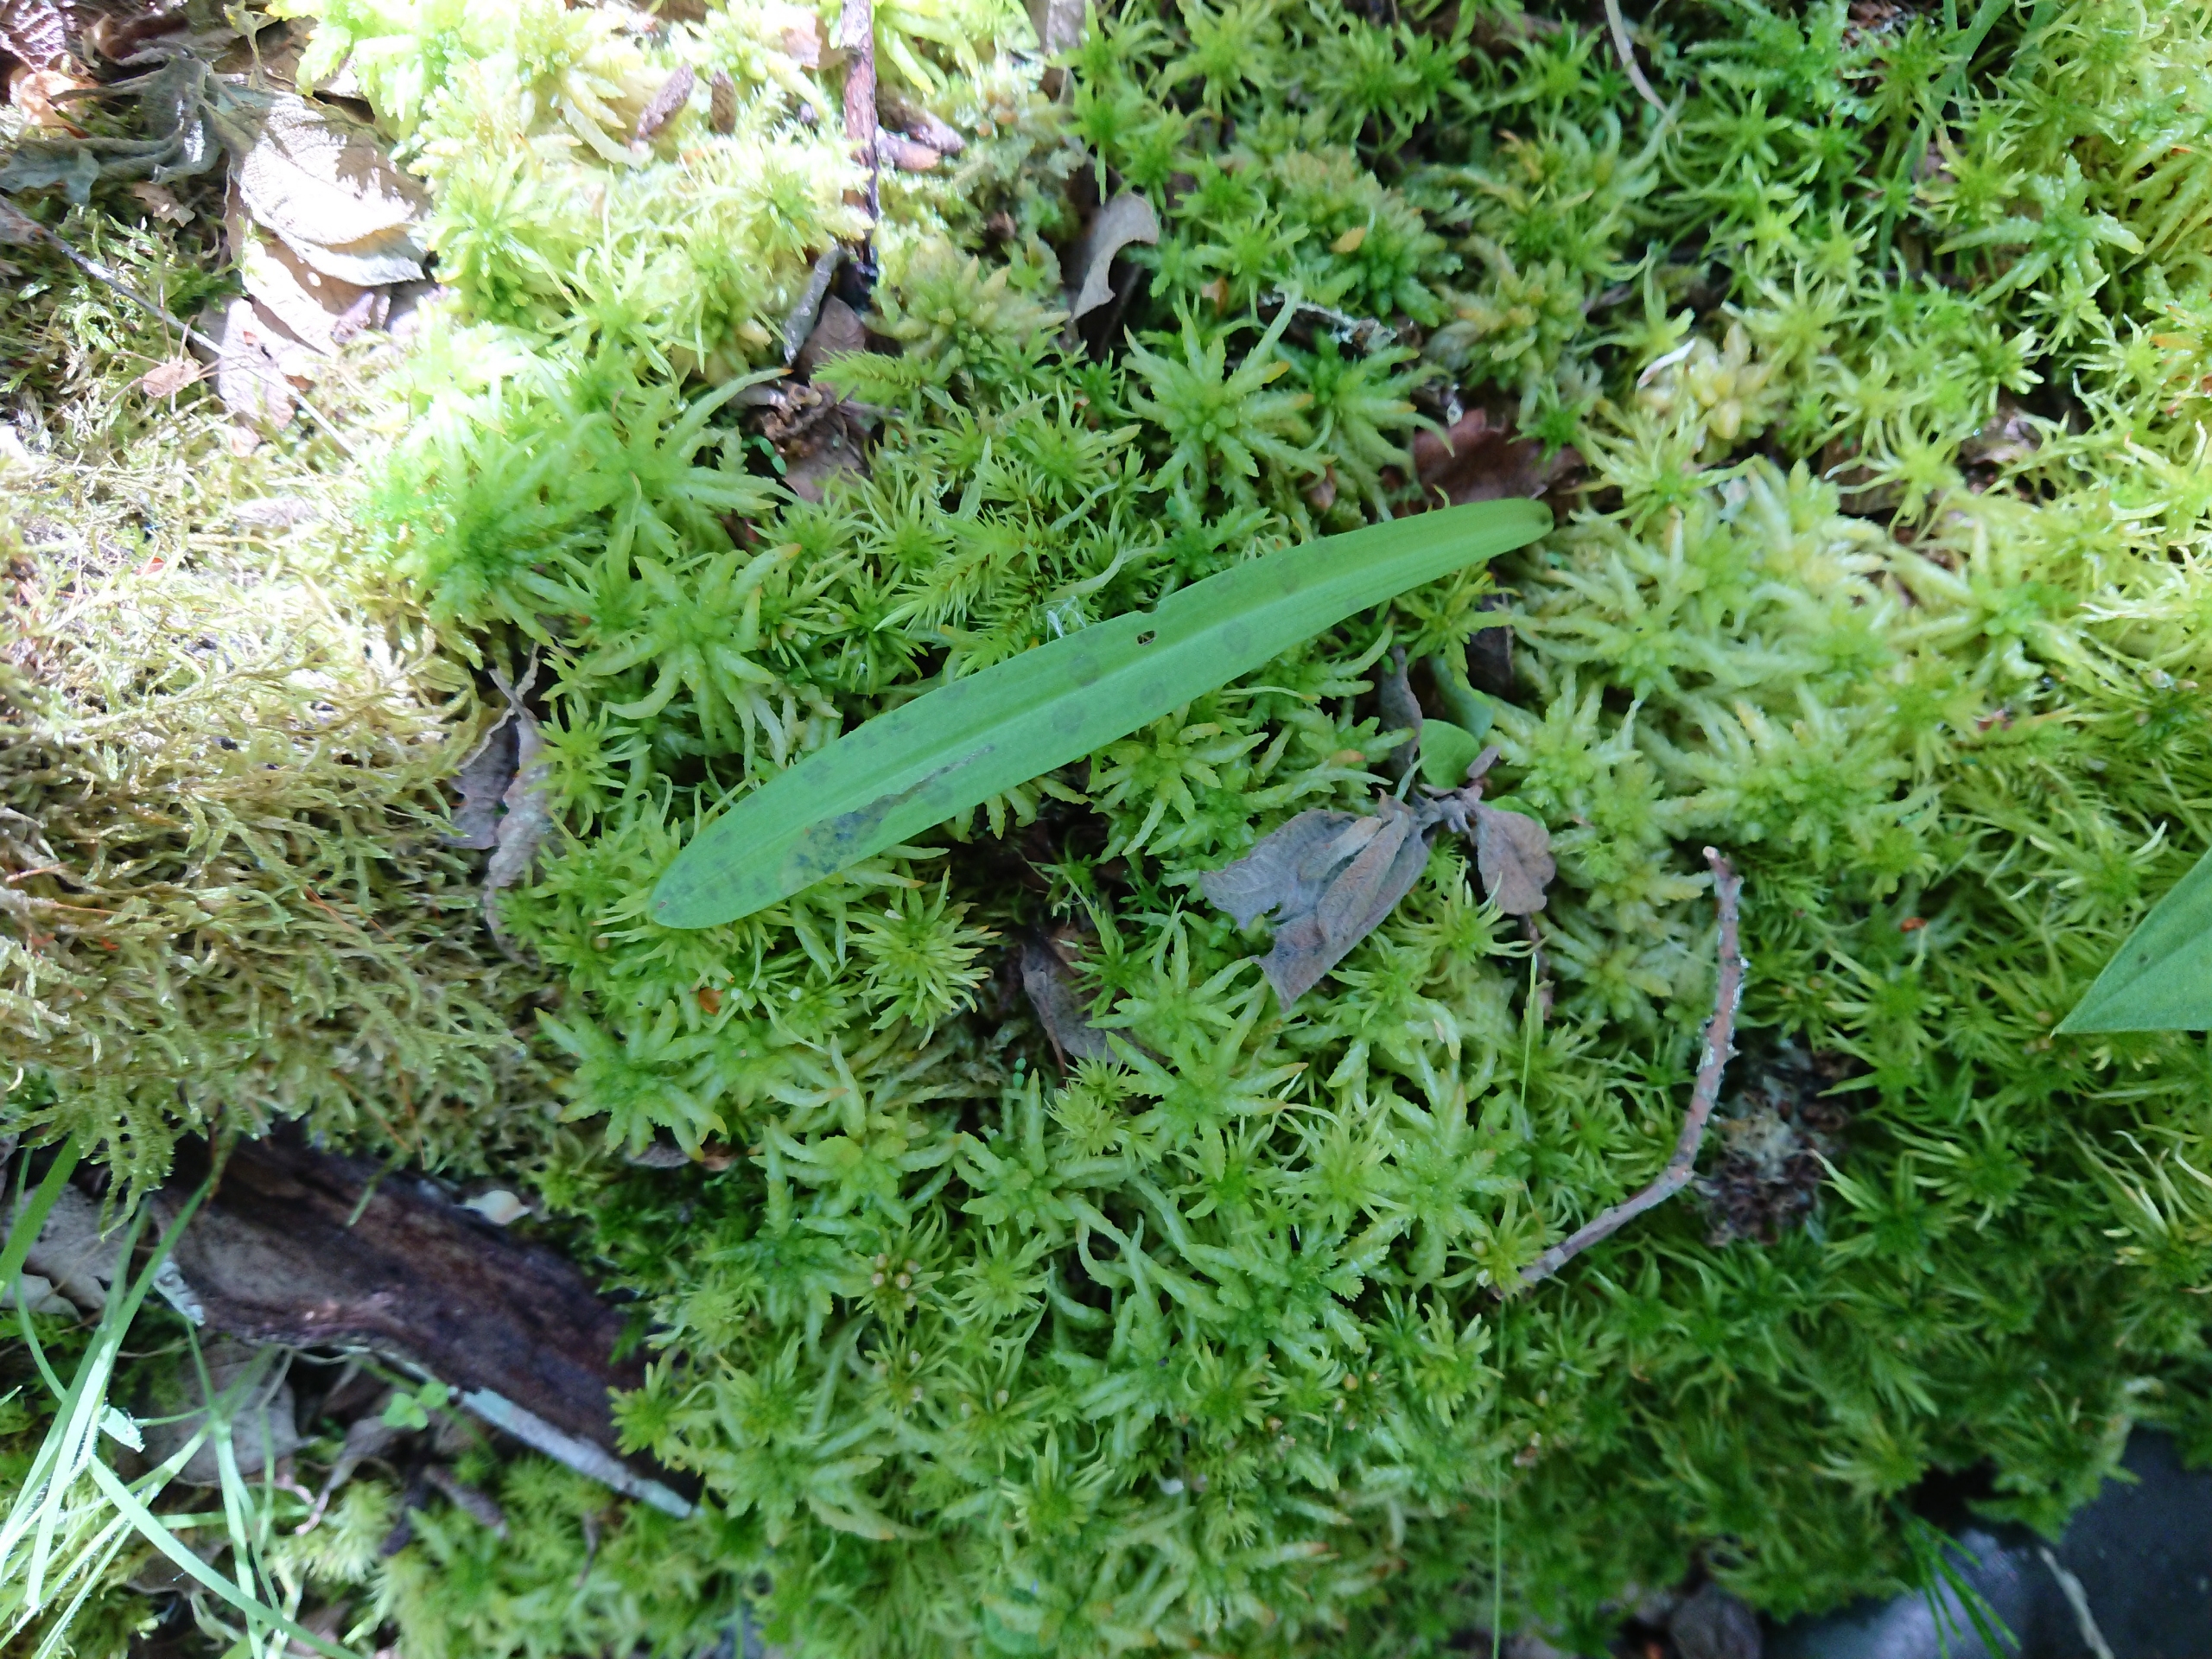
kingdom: Plantae
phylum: Tracheophyta
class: Liliopsida
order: Asparagales
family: Orchidaceae
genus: Dactylorhiza
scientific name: Dactylorhiza maculata
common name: Plettet gøgeurt (underart)
